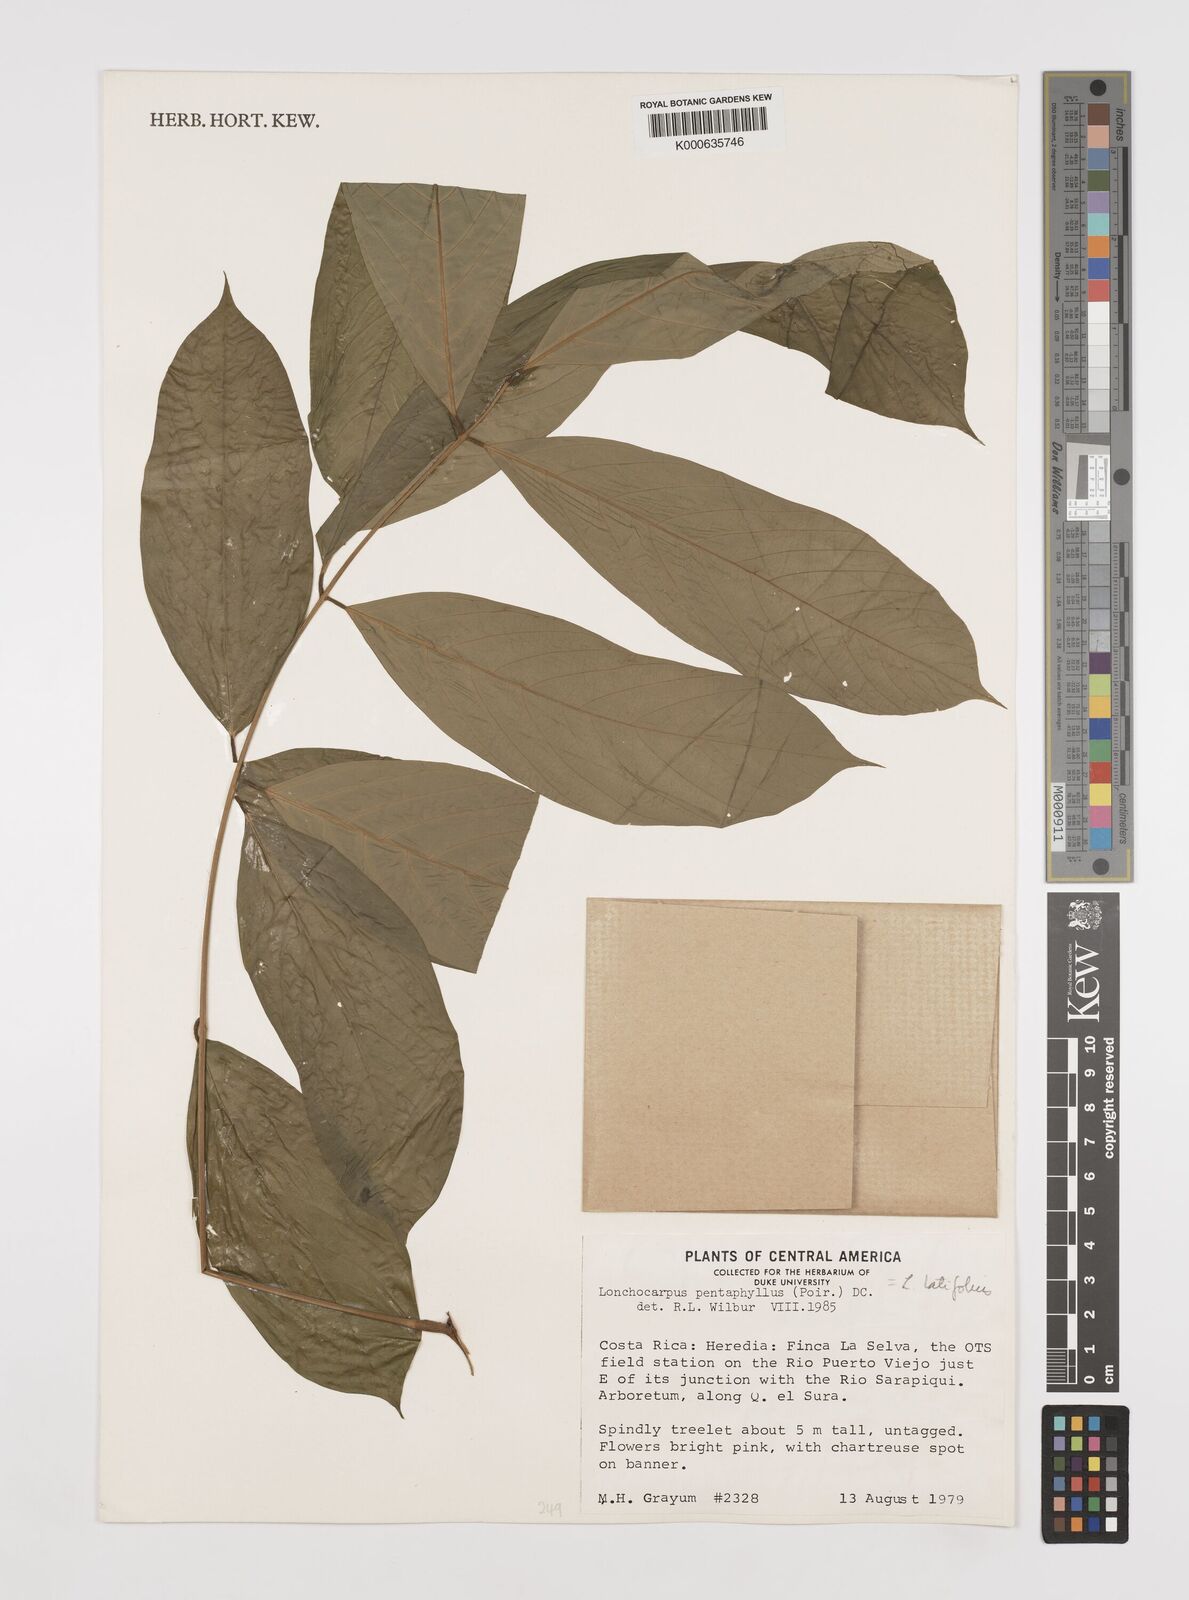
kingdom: Plantae
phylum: Tracheophyta
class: Magnoliopsida
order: Fabales
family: Fabaceae
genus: Lonchocarpus
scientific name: Lonchocarpus
